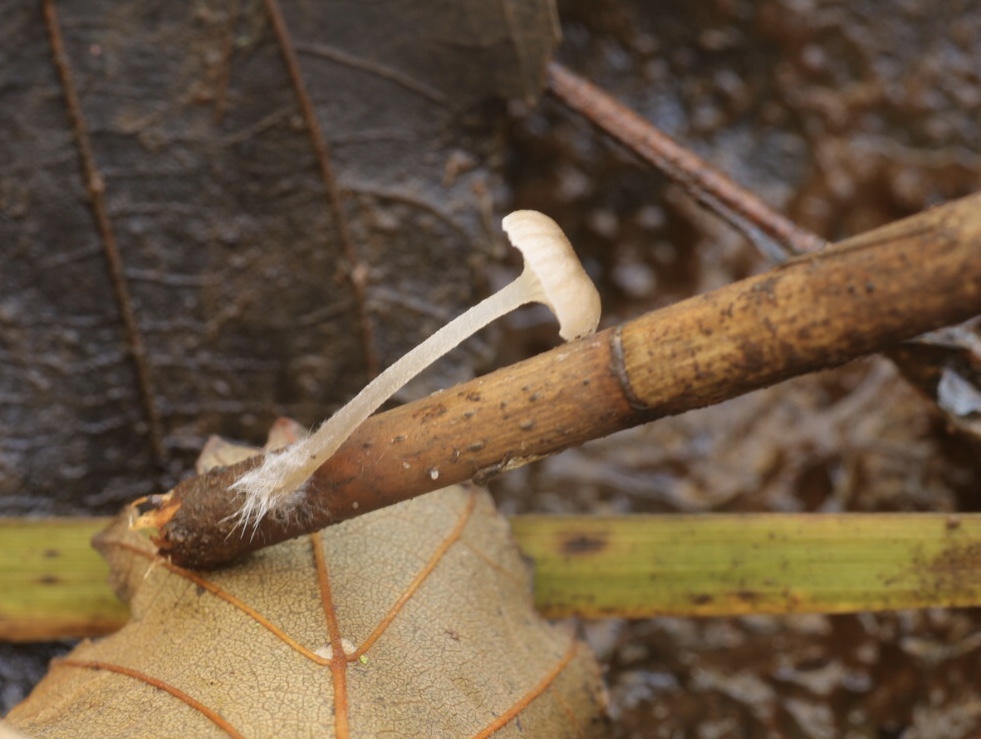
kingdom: Fungi
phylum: Basidiomycota
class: Agaricomycetes
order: Agaricales
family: Mycenaceae
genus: Mycena
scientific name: Mycena belliae
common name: tagrørs-huesvamp
